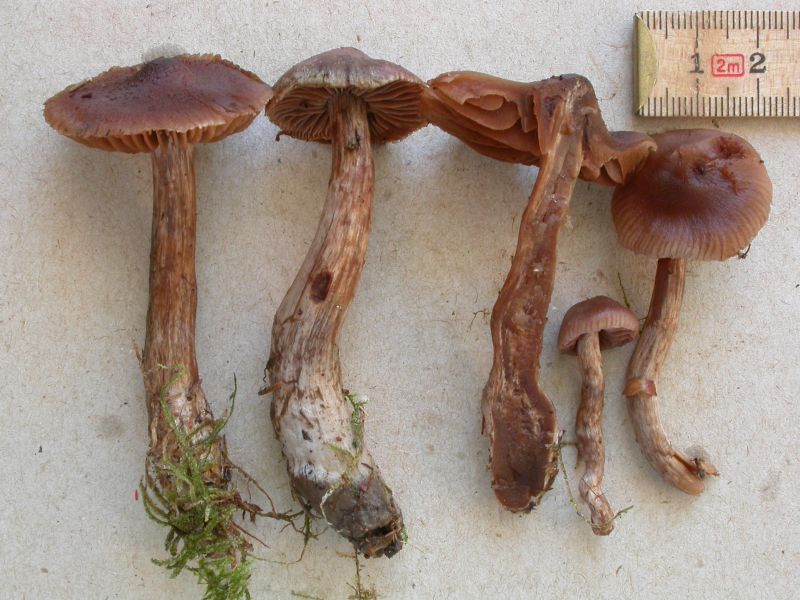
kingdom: Fungi
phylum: Basidiomycota
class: Agaricomycetes
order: Agaricales
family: Cortinariaceae
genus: Cortinarius
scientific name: Cortinarius glandicolor
